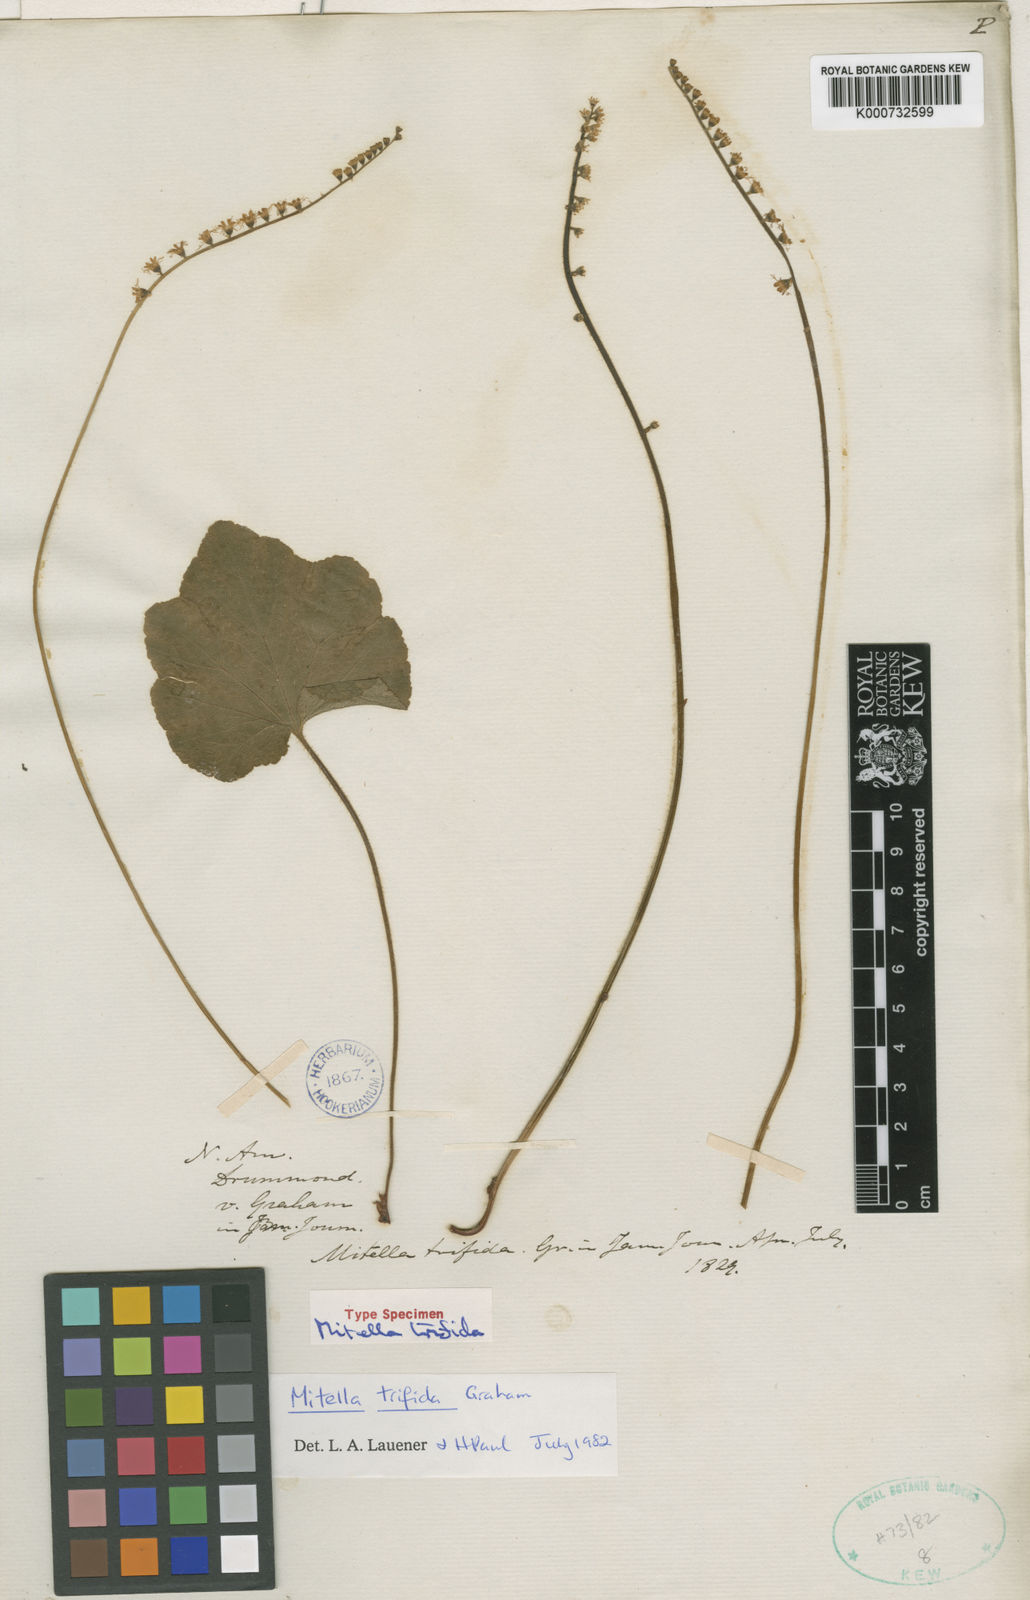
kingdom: Plantae
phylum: Tracheophyta
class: Magnoliopsida
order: Saxifragales
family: Saxifragaceae
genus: Mitella
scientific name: Mitella diphylla
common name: Coolwort
